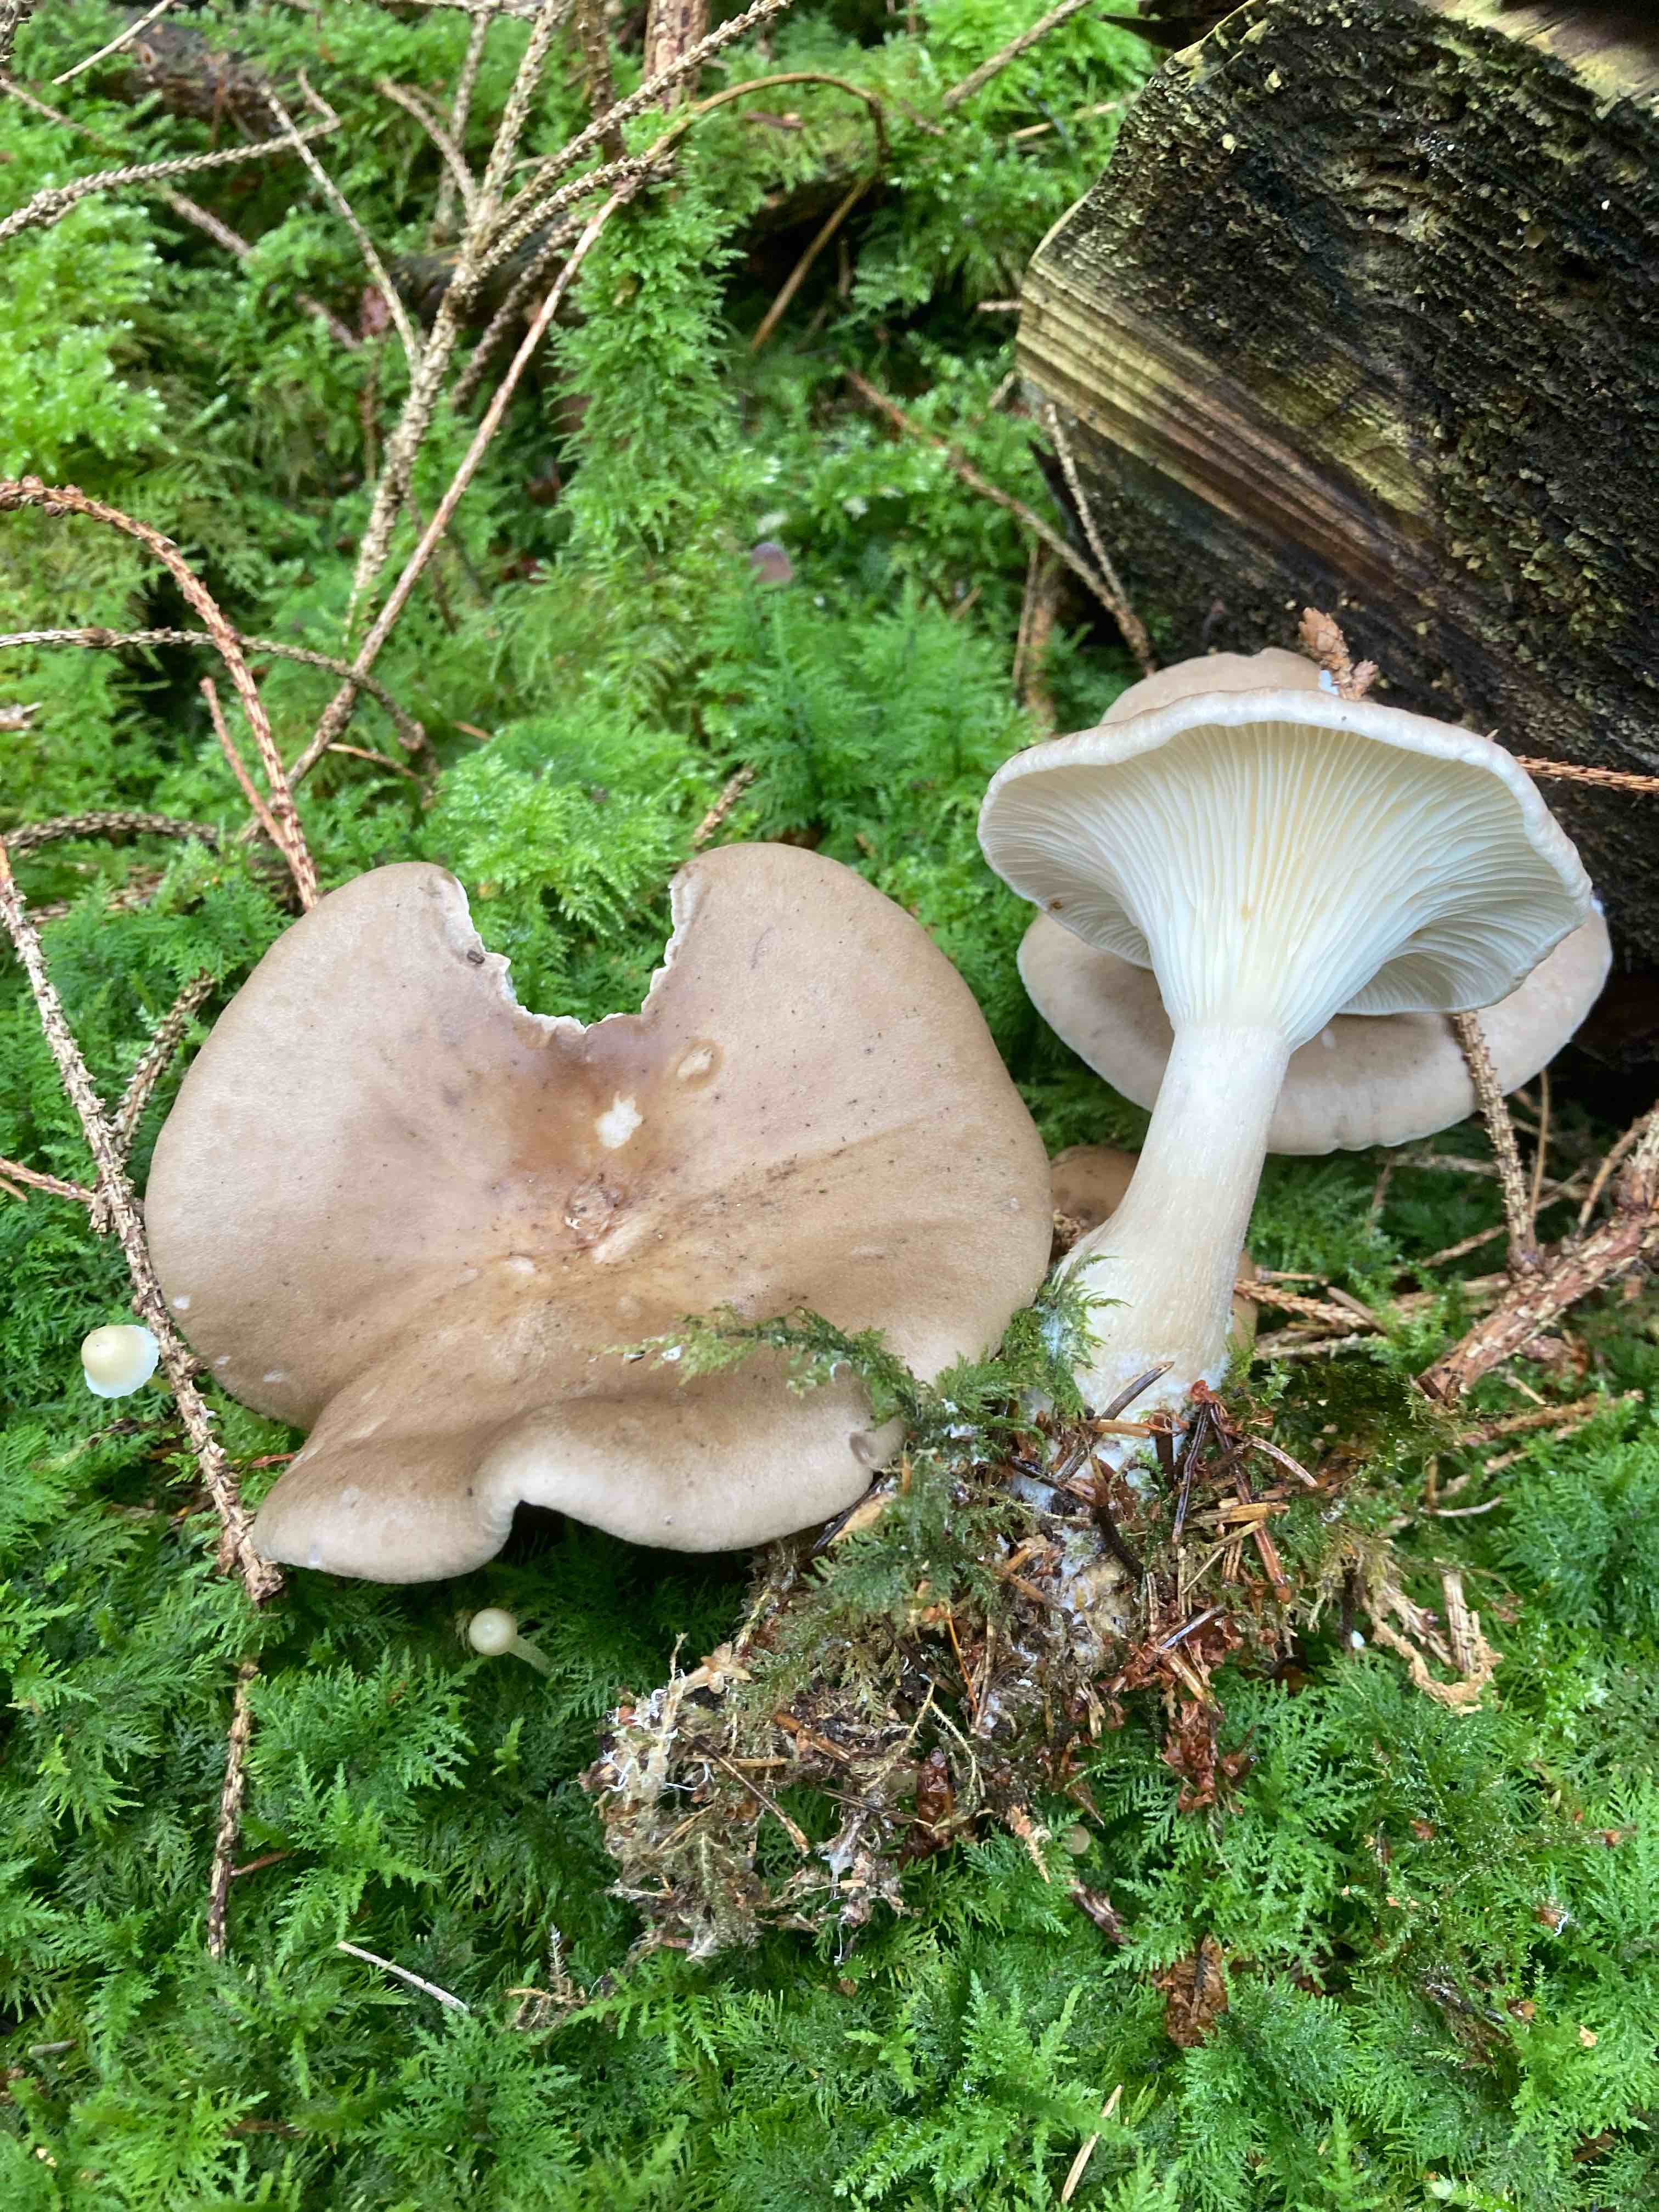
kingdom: Fungi
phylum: Basidiomycota
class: Agaricomycetes
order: Agaricales
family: Hygrophoraceae
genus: Ampulloclitocybe
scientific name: Ampulloclitocybe clavipes
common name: køllefod
